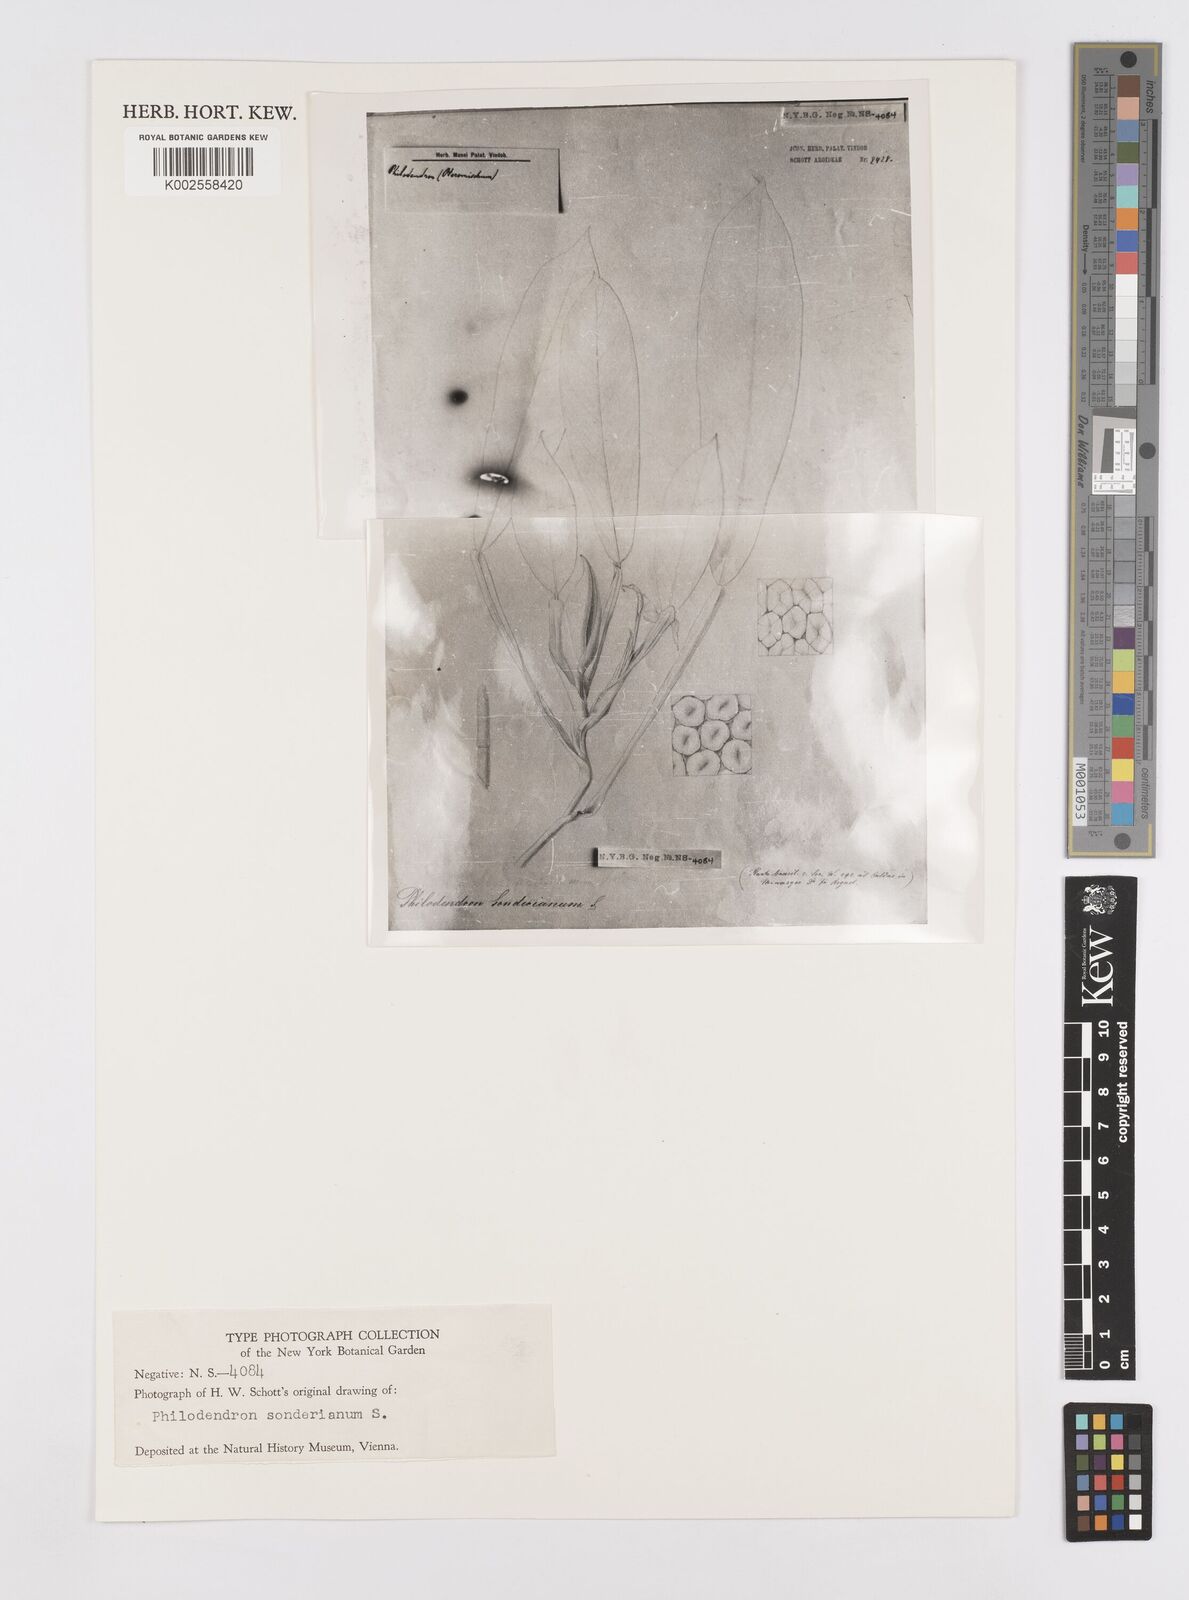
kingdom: Plantae
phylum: Tracheophyta
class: Liliopsida
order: Alismatales
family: Araceae
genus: Philodendron
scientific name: Philodendron sonderianum
